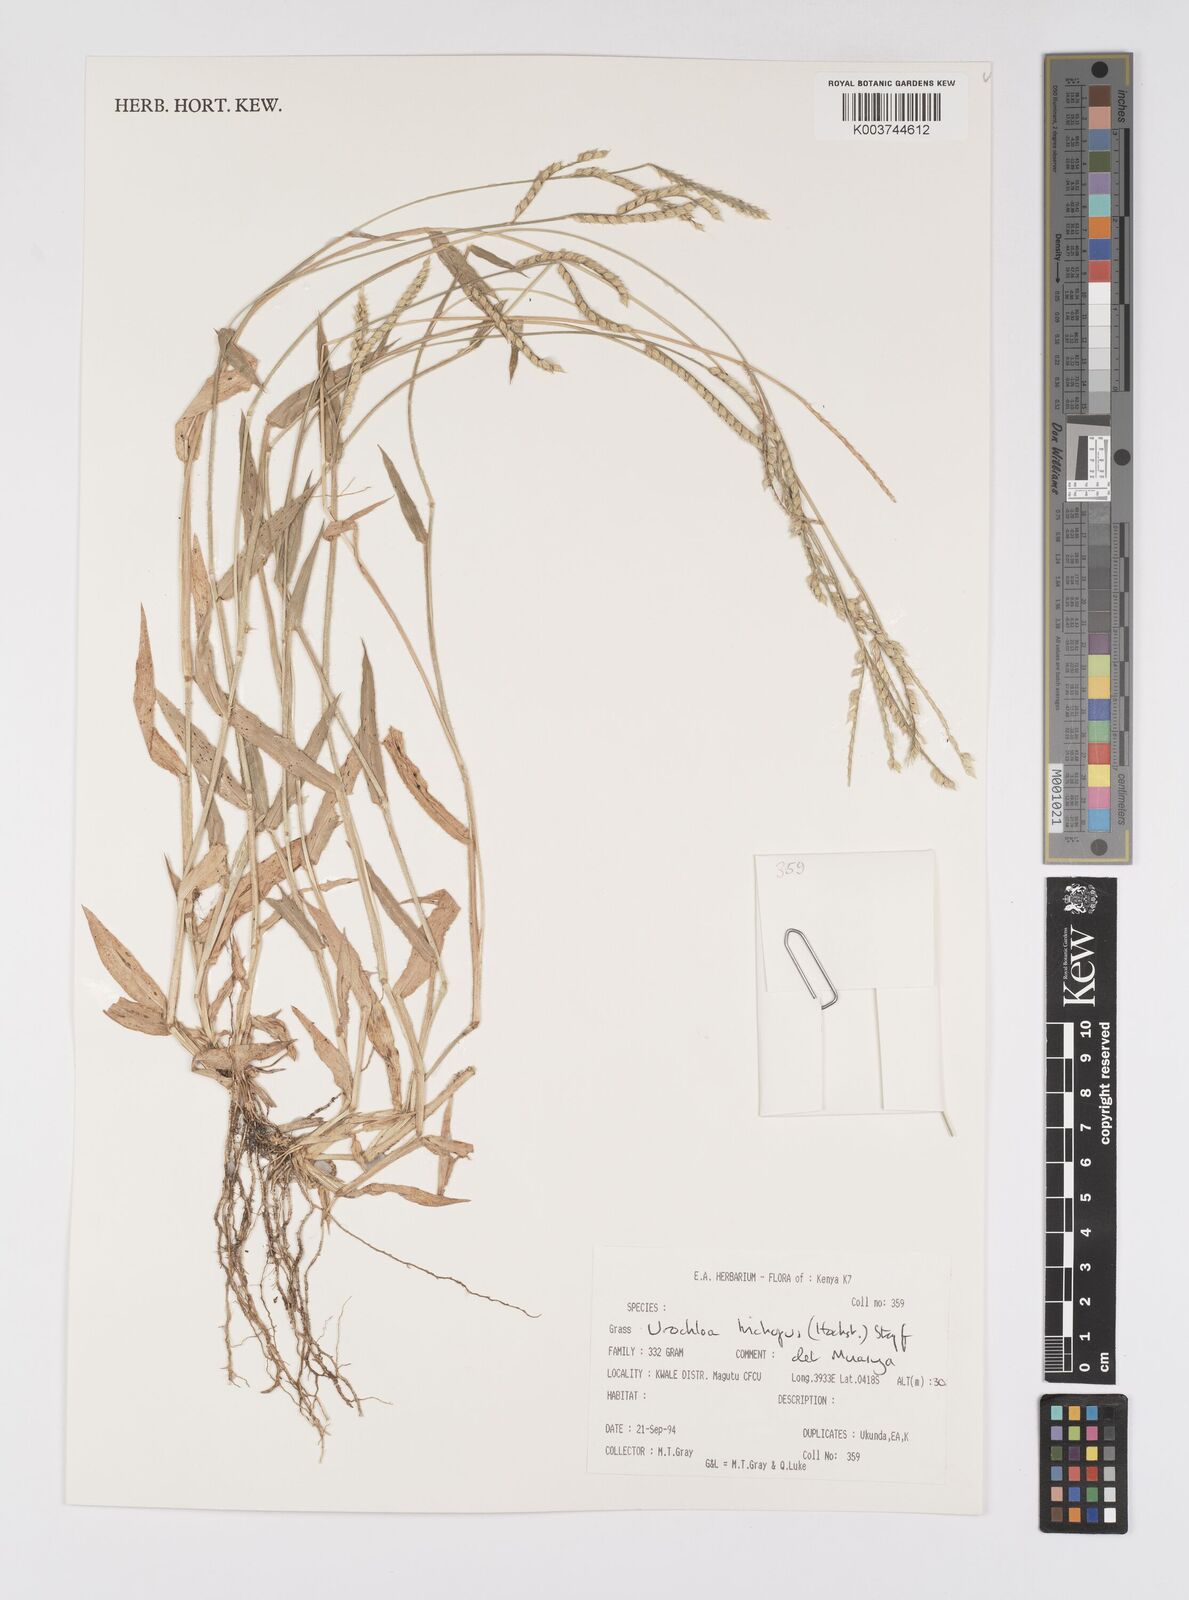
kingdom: Plantae
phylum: Tracheophyta
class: Liliopsida
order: Poales
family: Poaceae
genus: Urochloa
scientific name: Urochloa trichopus
